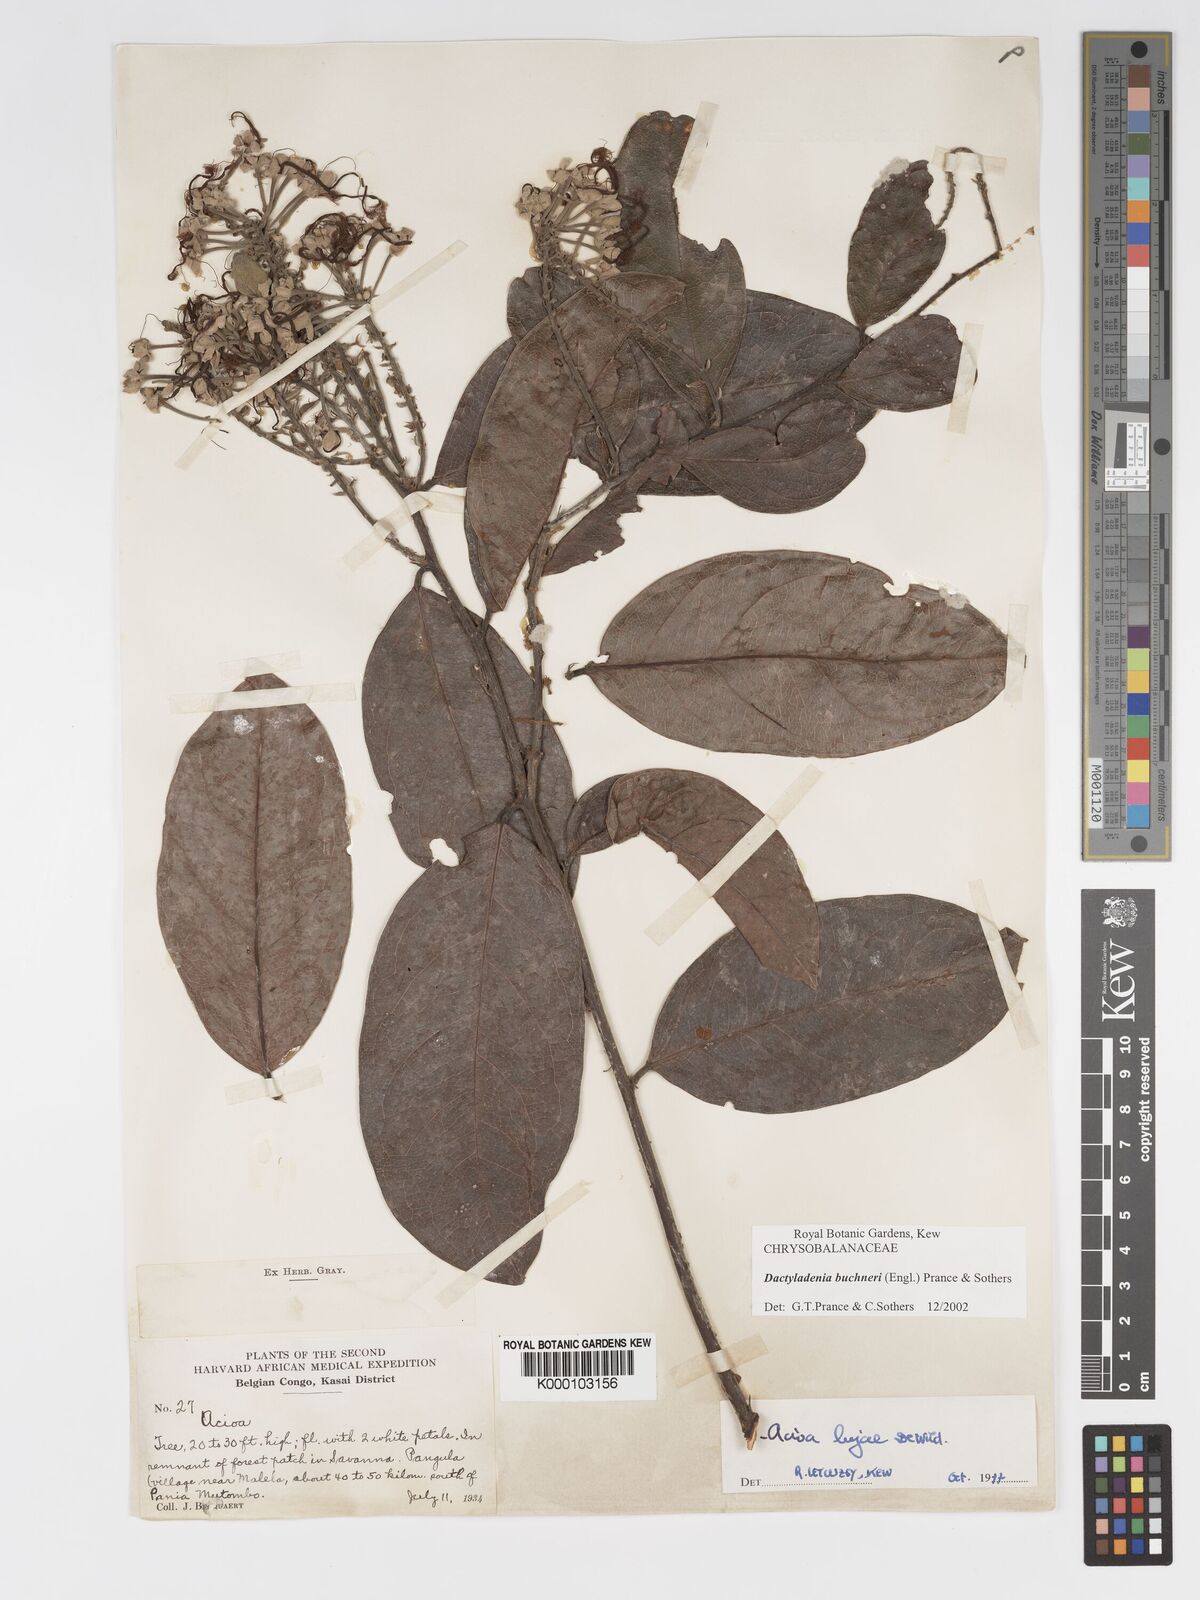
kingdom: Plantae
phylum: Tracheophyta
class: Magnoliopsida
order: Malpighiales
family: Chrysobalanaceae
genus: Dactyladenia
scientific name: Dactyladenia buchneri
